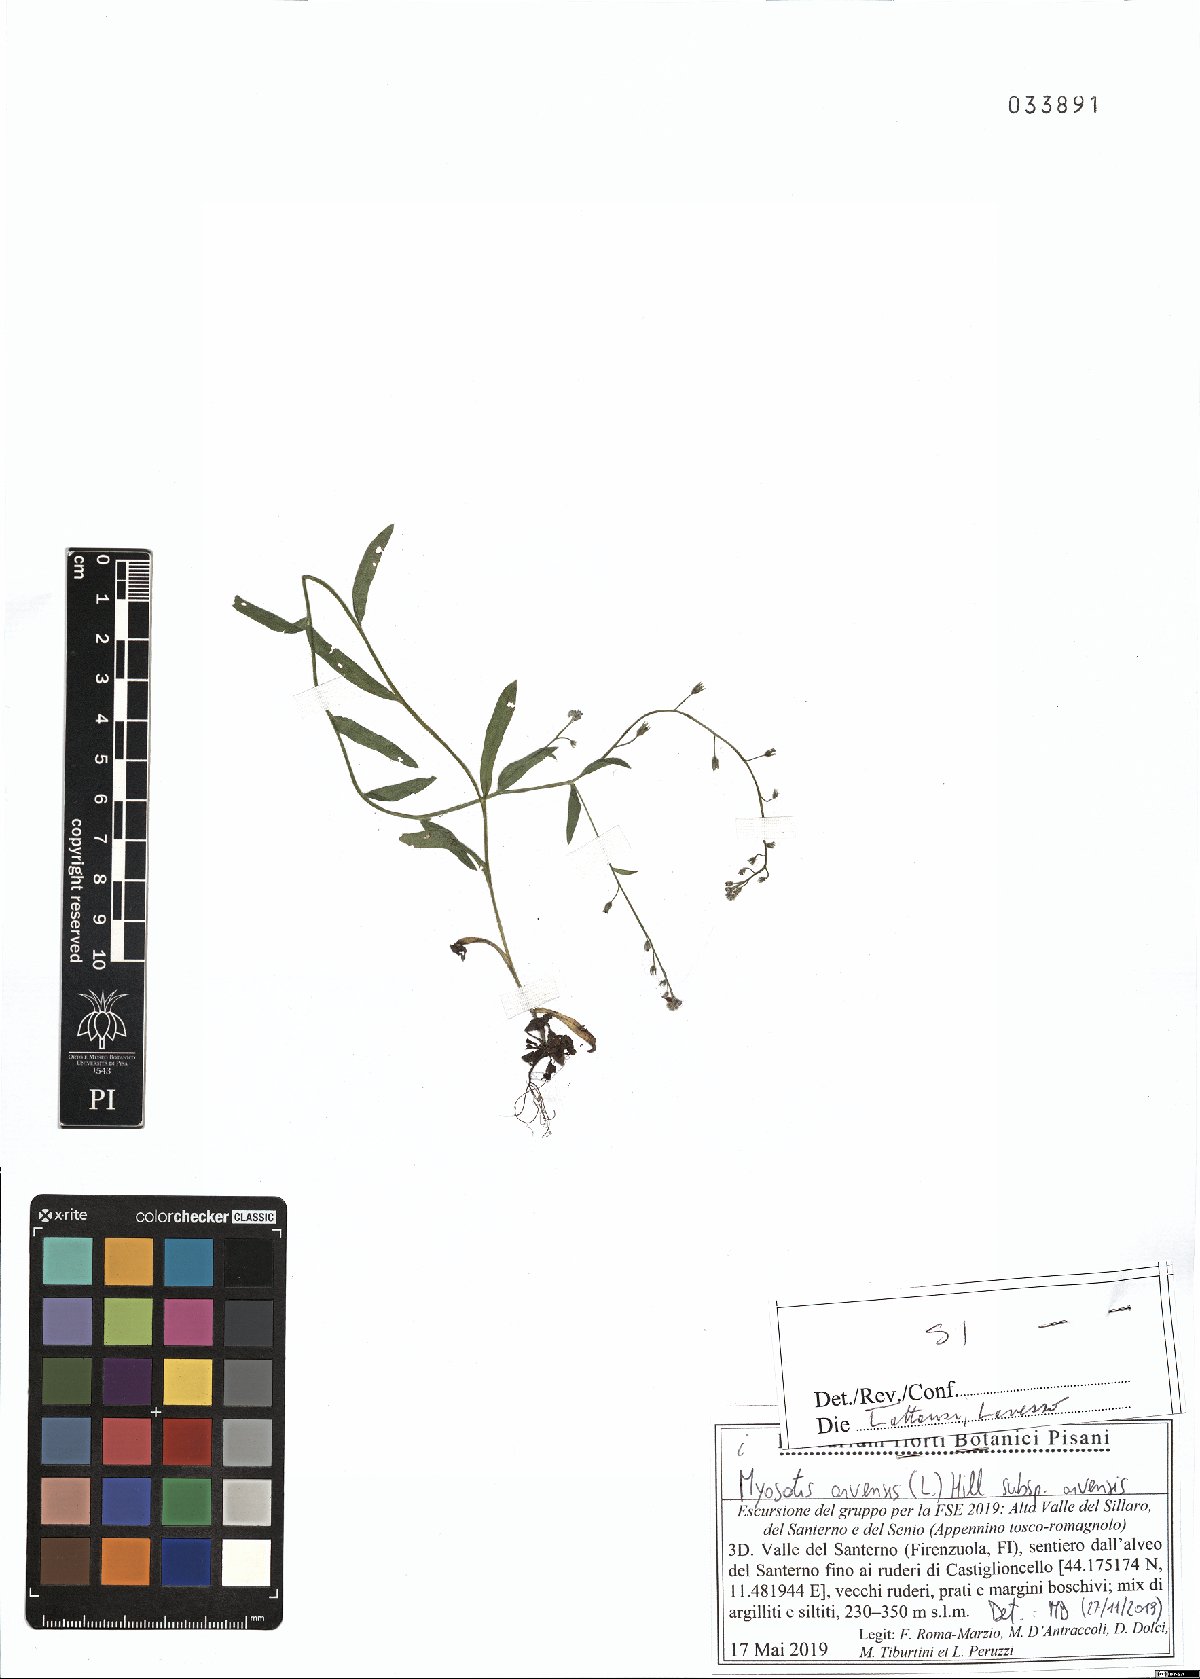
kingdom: Plantae
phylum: Tracheophyta
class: Magnoliopsida
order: Boraginales
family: Boraginaceae
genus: Myosotis
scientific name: Myosotis arvensis
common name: Field forget-me-not
